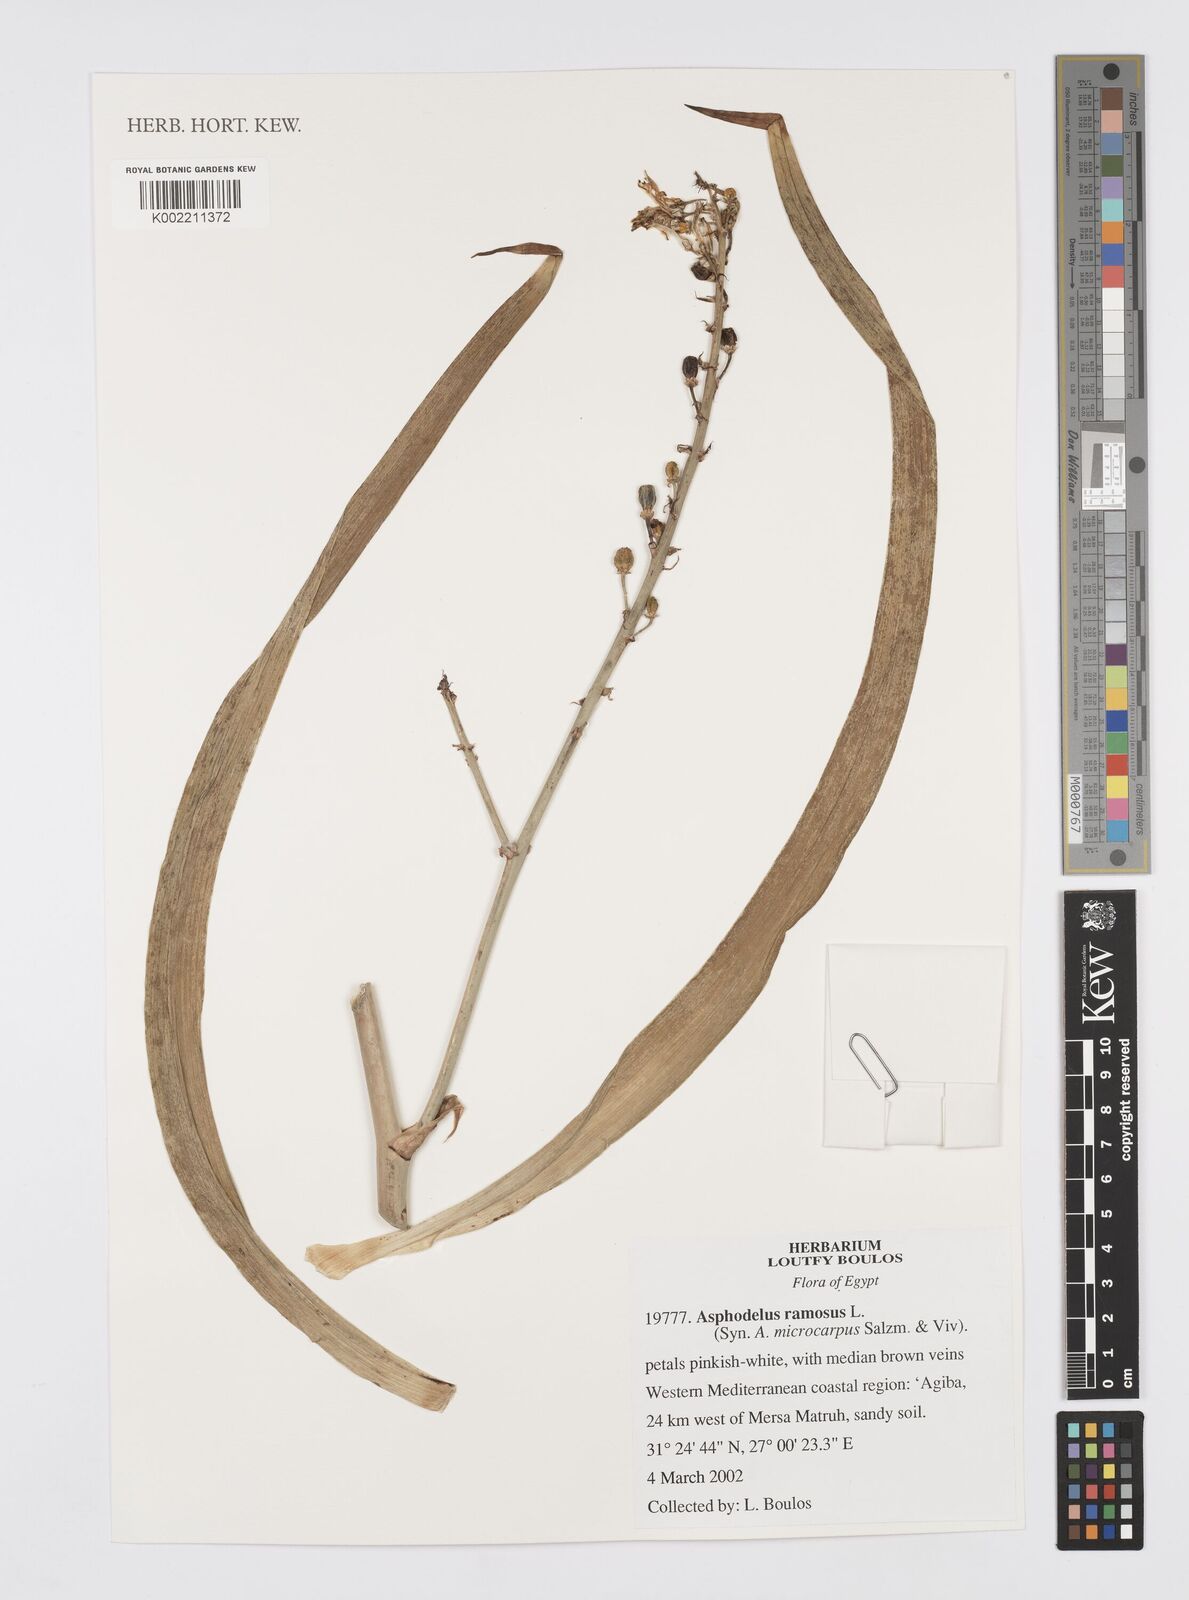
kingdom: Plantae
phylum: Tracheophyta
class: Liliopsida
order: Asparagales
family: Asphodelaceae
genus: Asphodelus
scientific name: Asphodelus ramosus
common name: Silverrod
